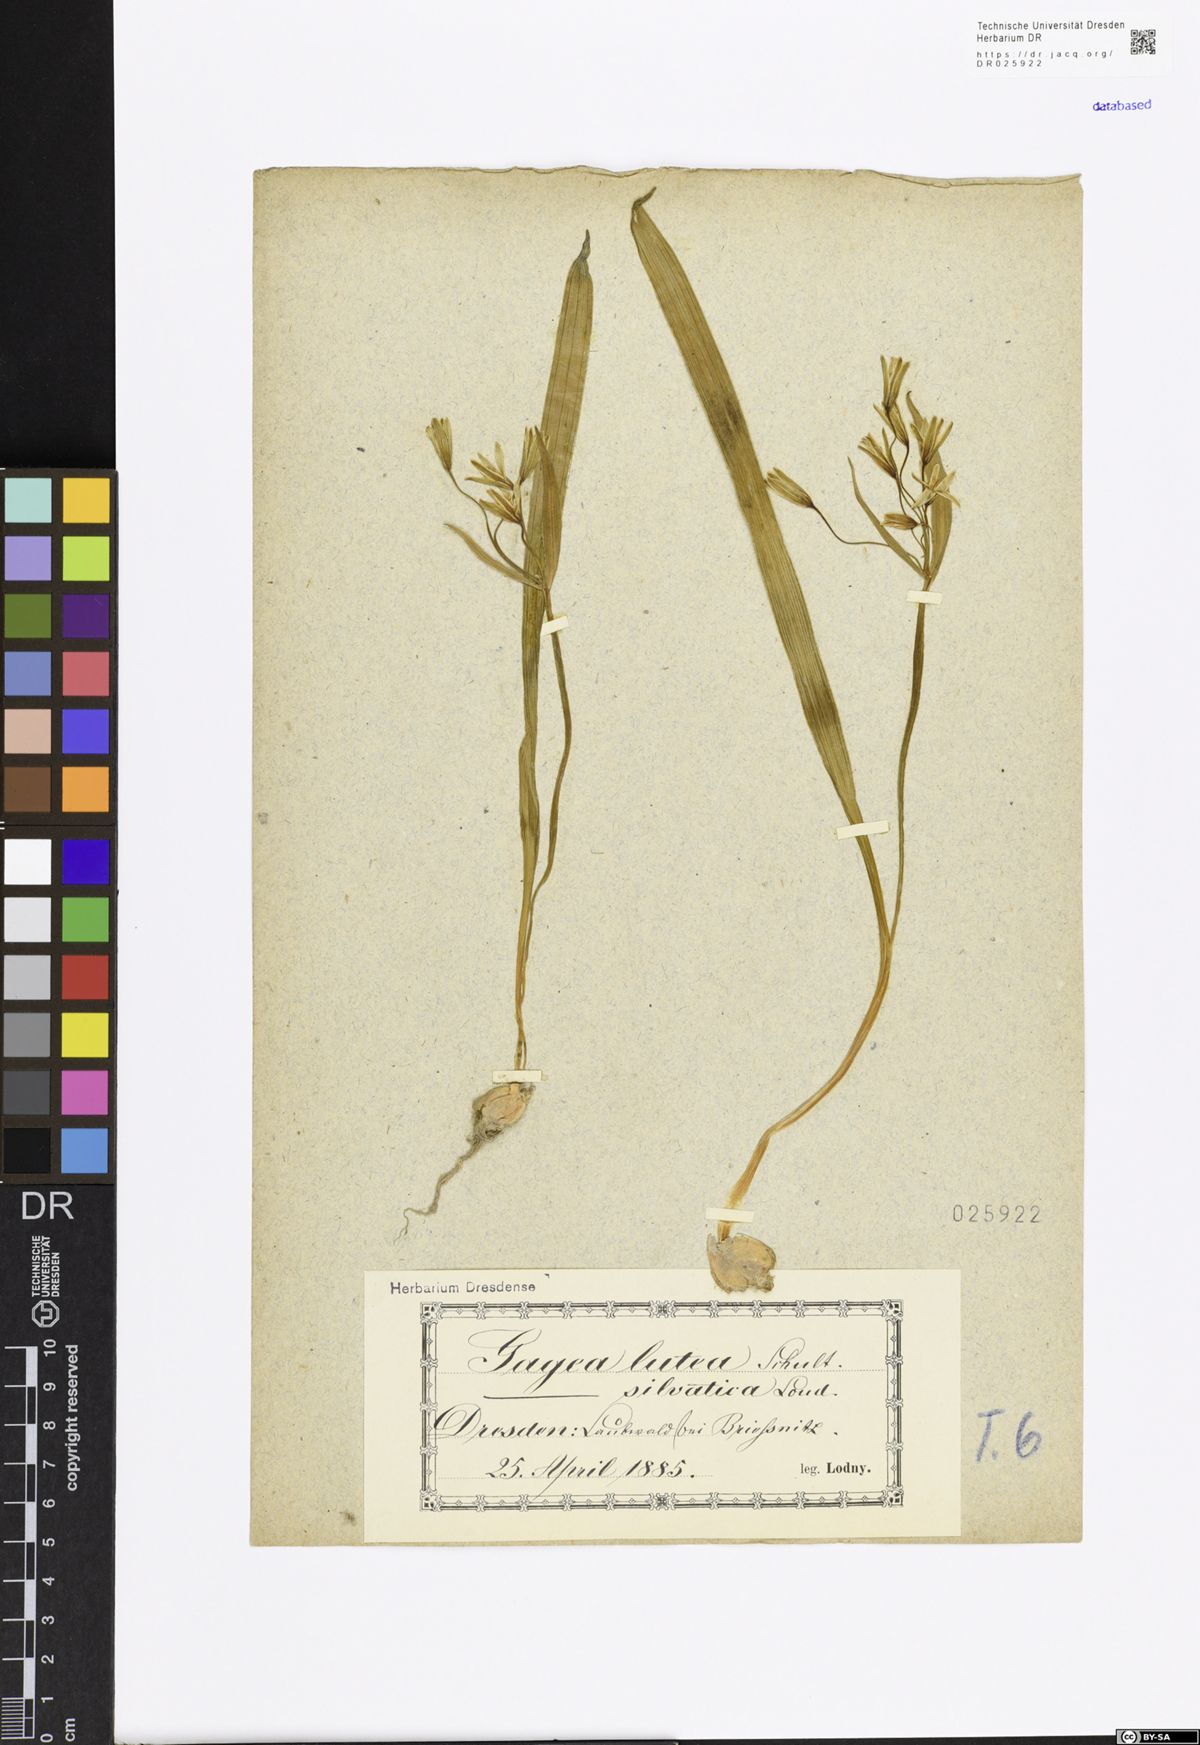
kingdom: Plantae
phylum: Tracheophyta
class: Liliopsida
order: Liliales
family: Liliaceae
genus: Gagea
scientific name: Gagea lutea
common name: Yellow star-of-bethlehem
